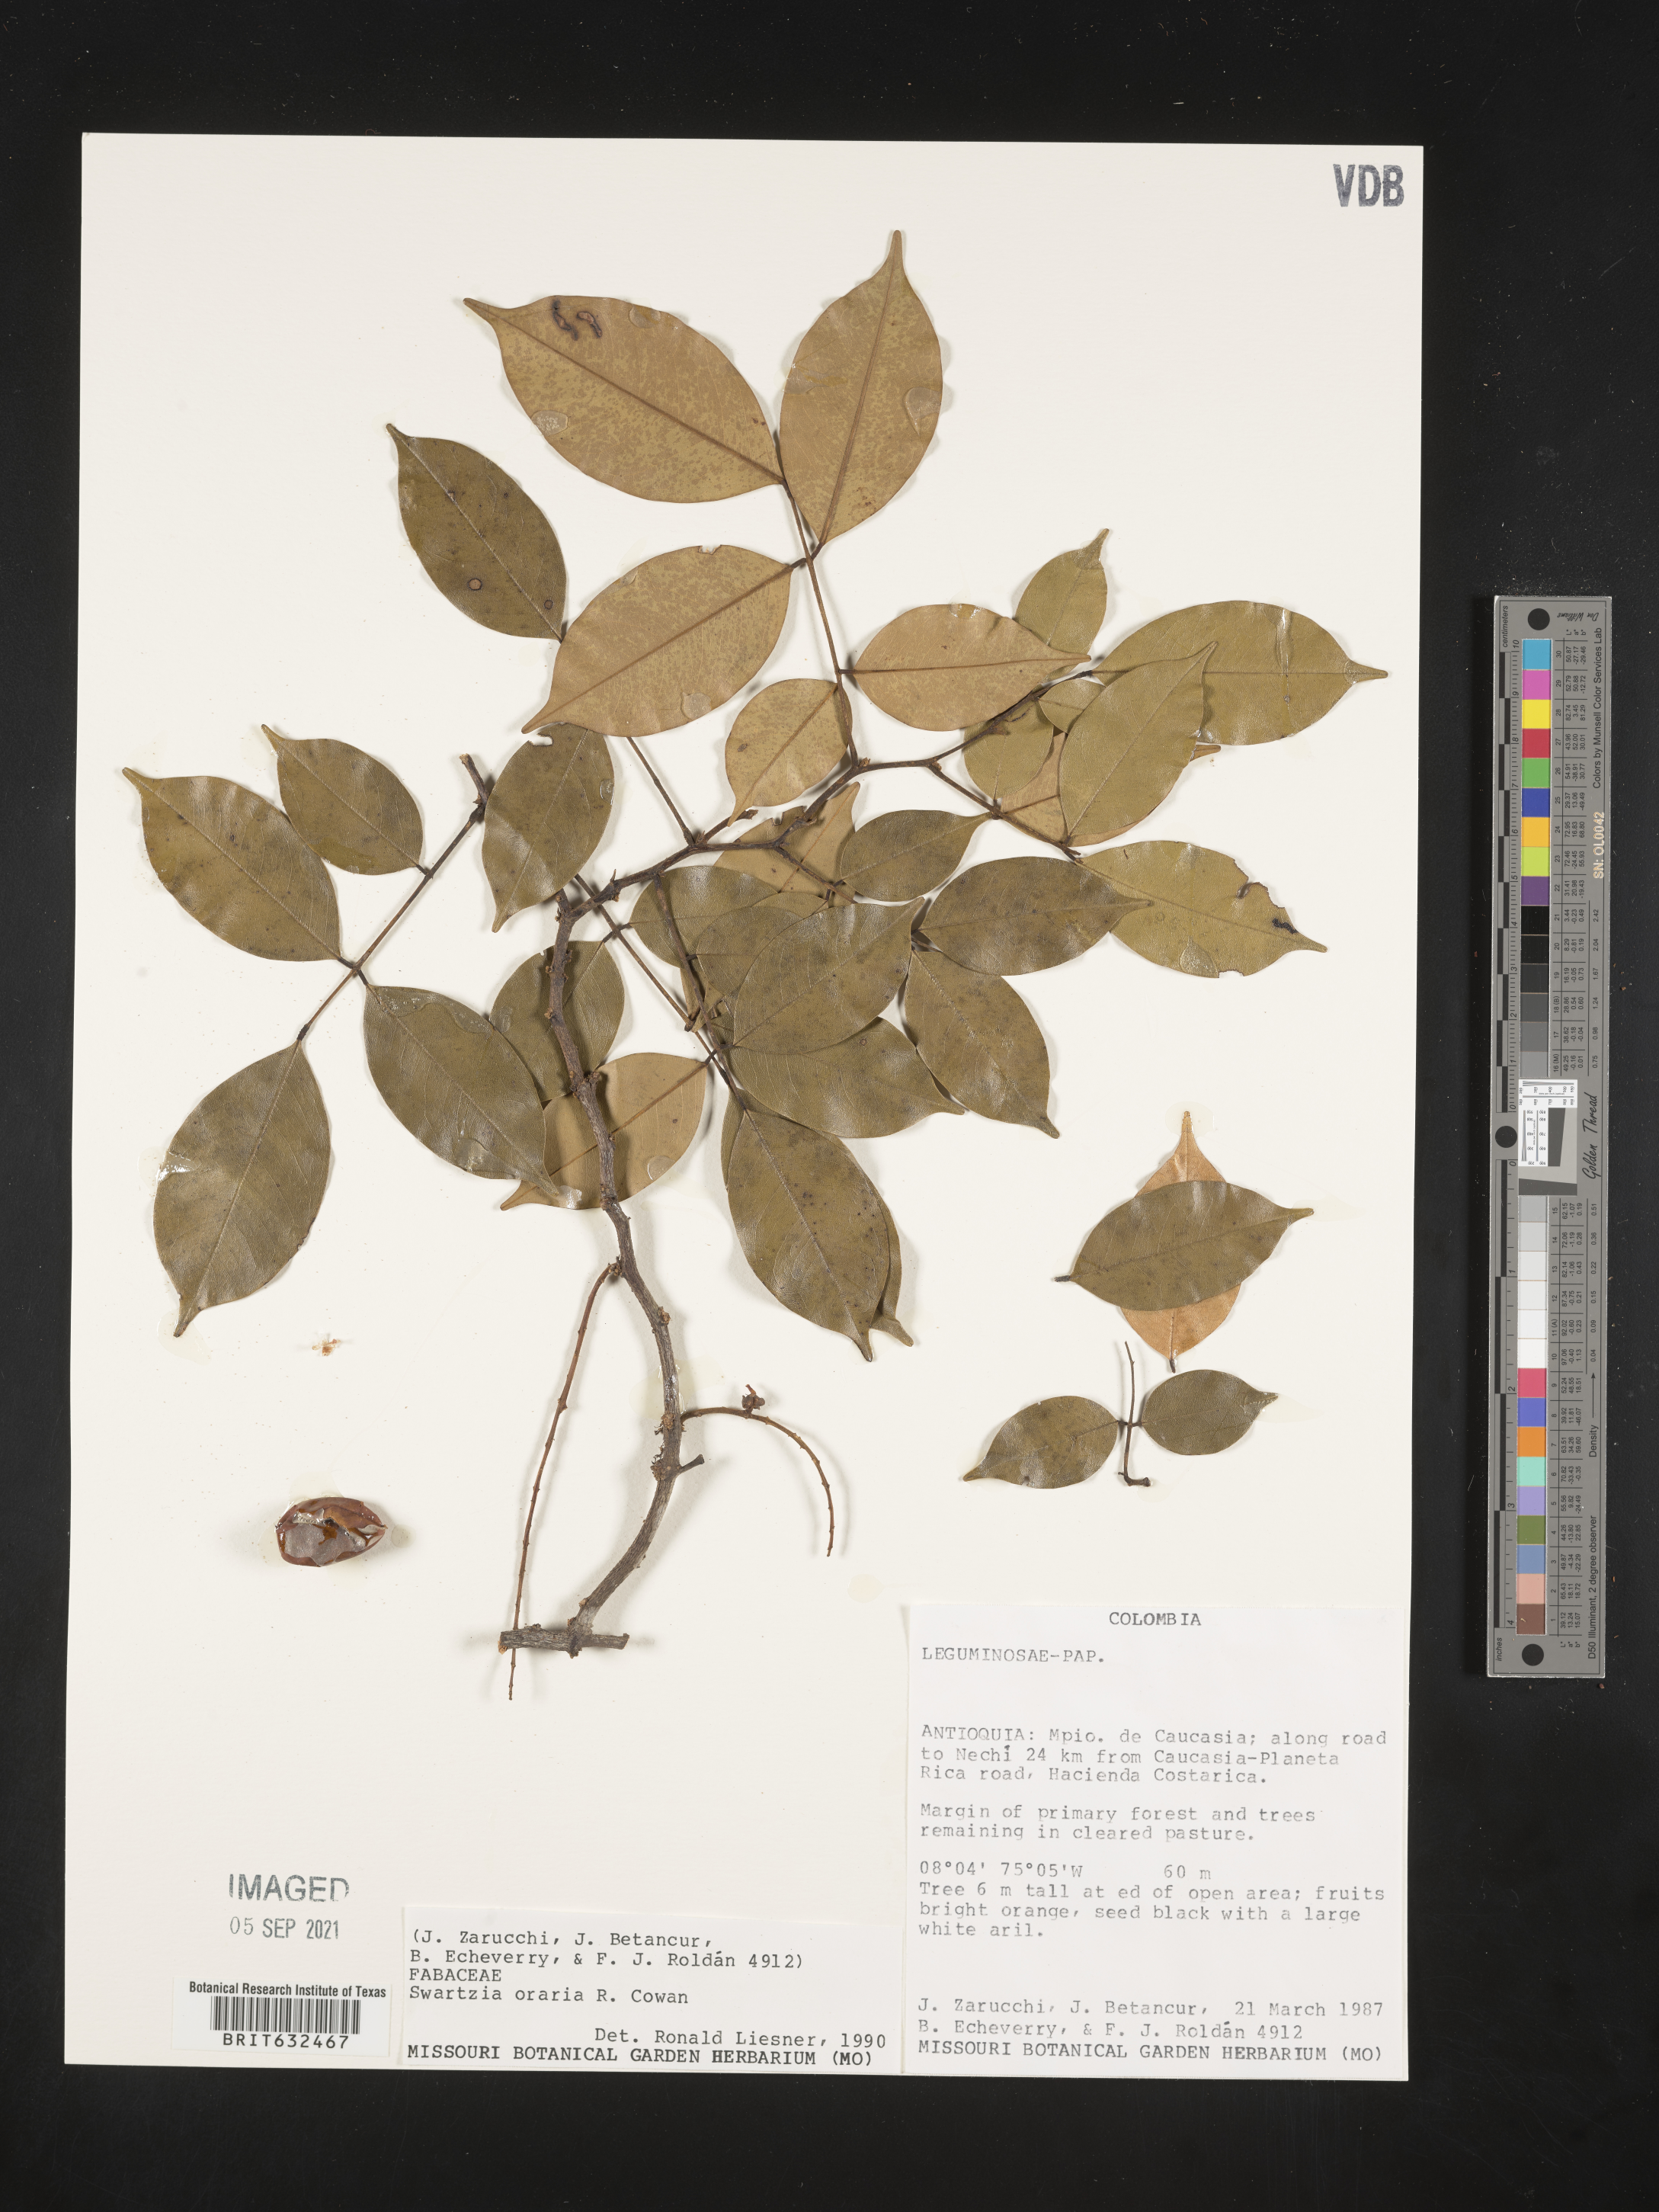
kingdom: Plantae
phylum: Tracheophyta
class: Magnoliopsida
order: Fabales
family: Fabaceae
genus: Swartzia
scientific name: Swartzia
